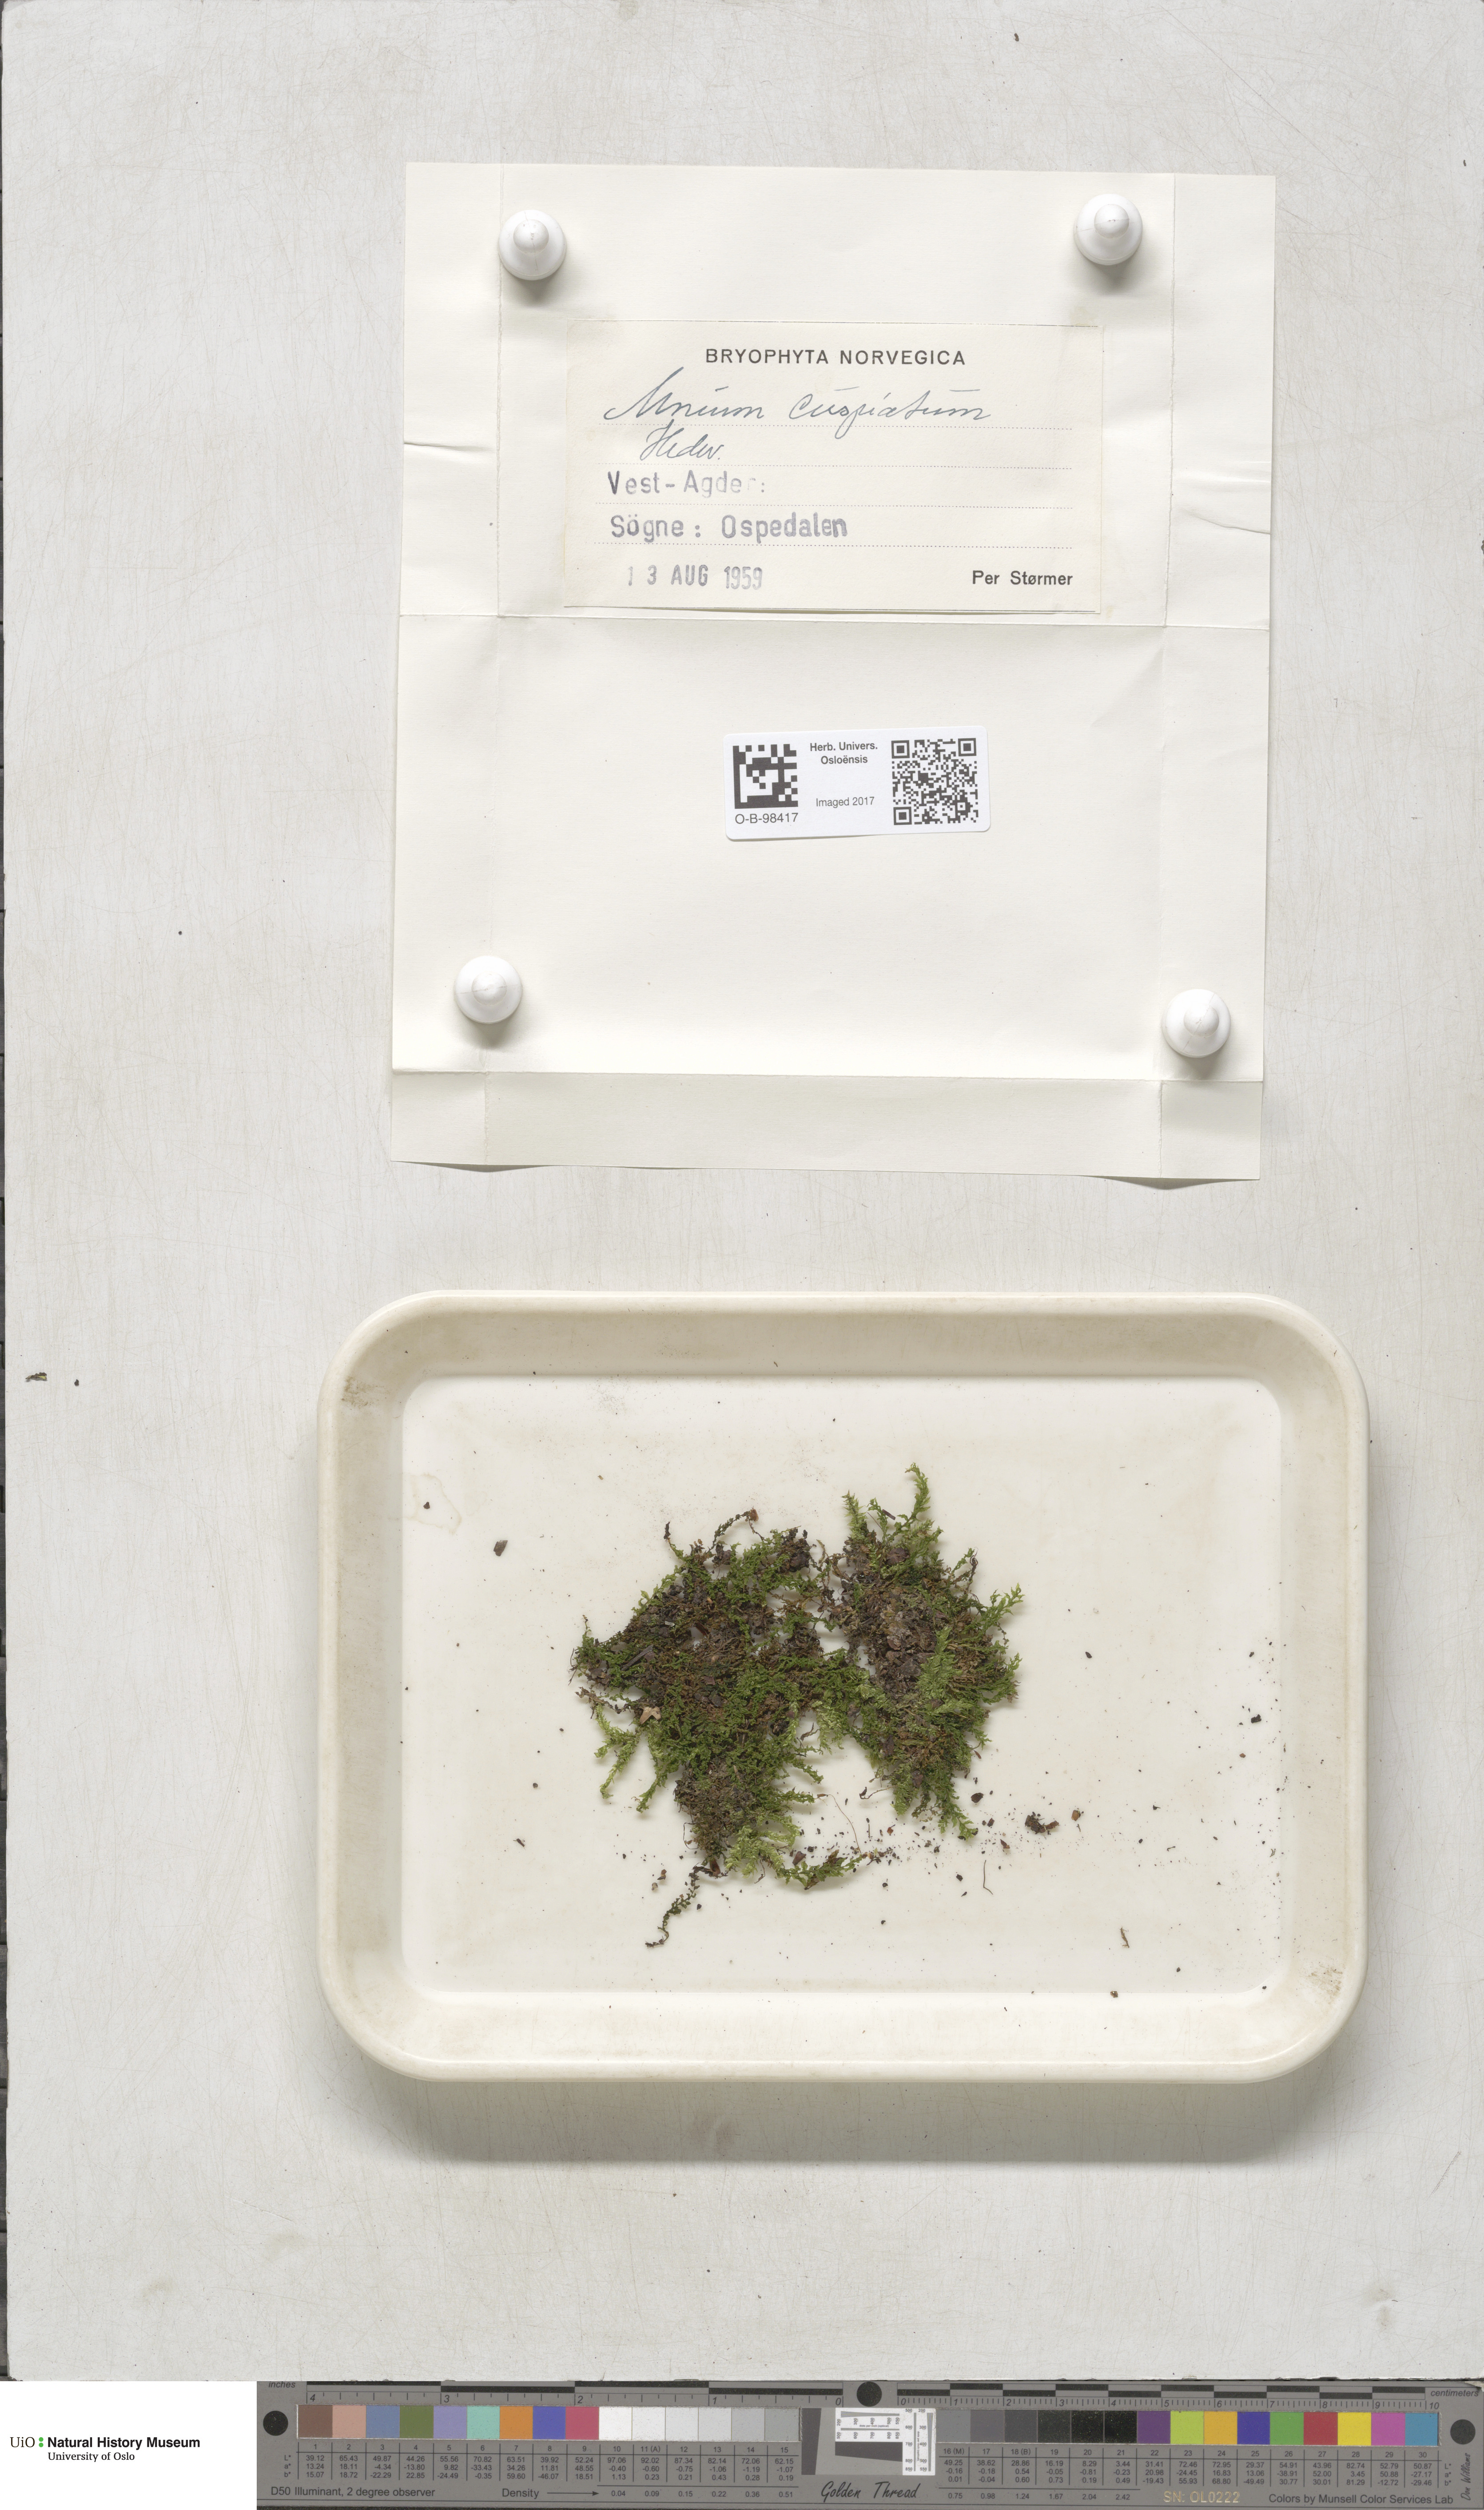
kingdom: Plantae
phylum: Bryophyta
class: Bryopsida
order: Bryales
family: Mniaceae
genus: Plagiomnium
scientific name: Plagiomnium cuspidatum
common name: Woodsy leafy moss
